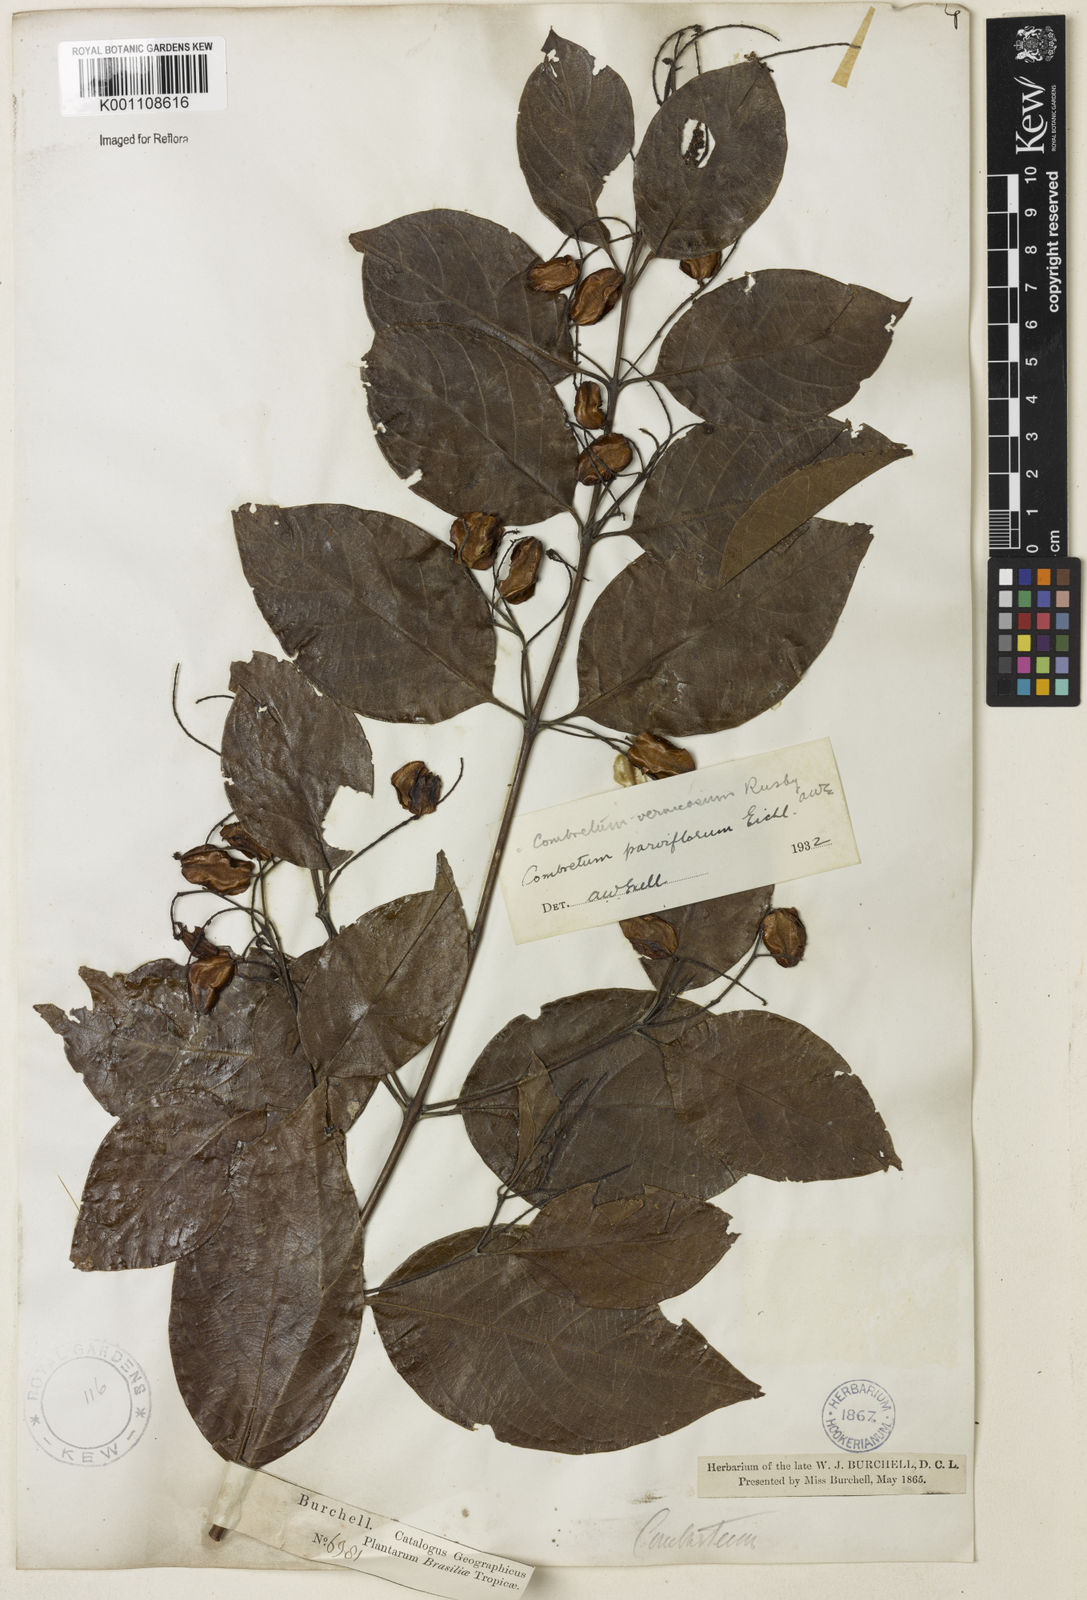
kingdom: Plantae
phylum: Tracheophyta
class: Magnoliopsida
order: Myrtales
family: Combretaceae
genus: Combretum
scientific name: Combretum vernicosum
